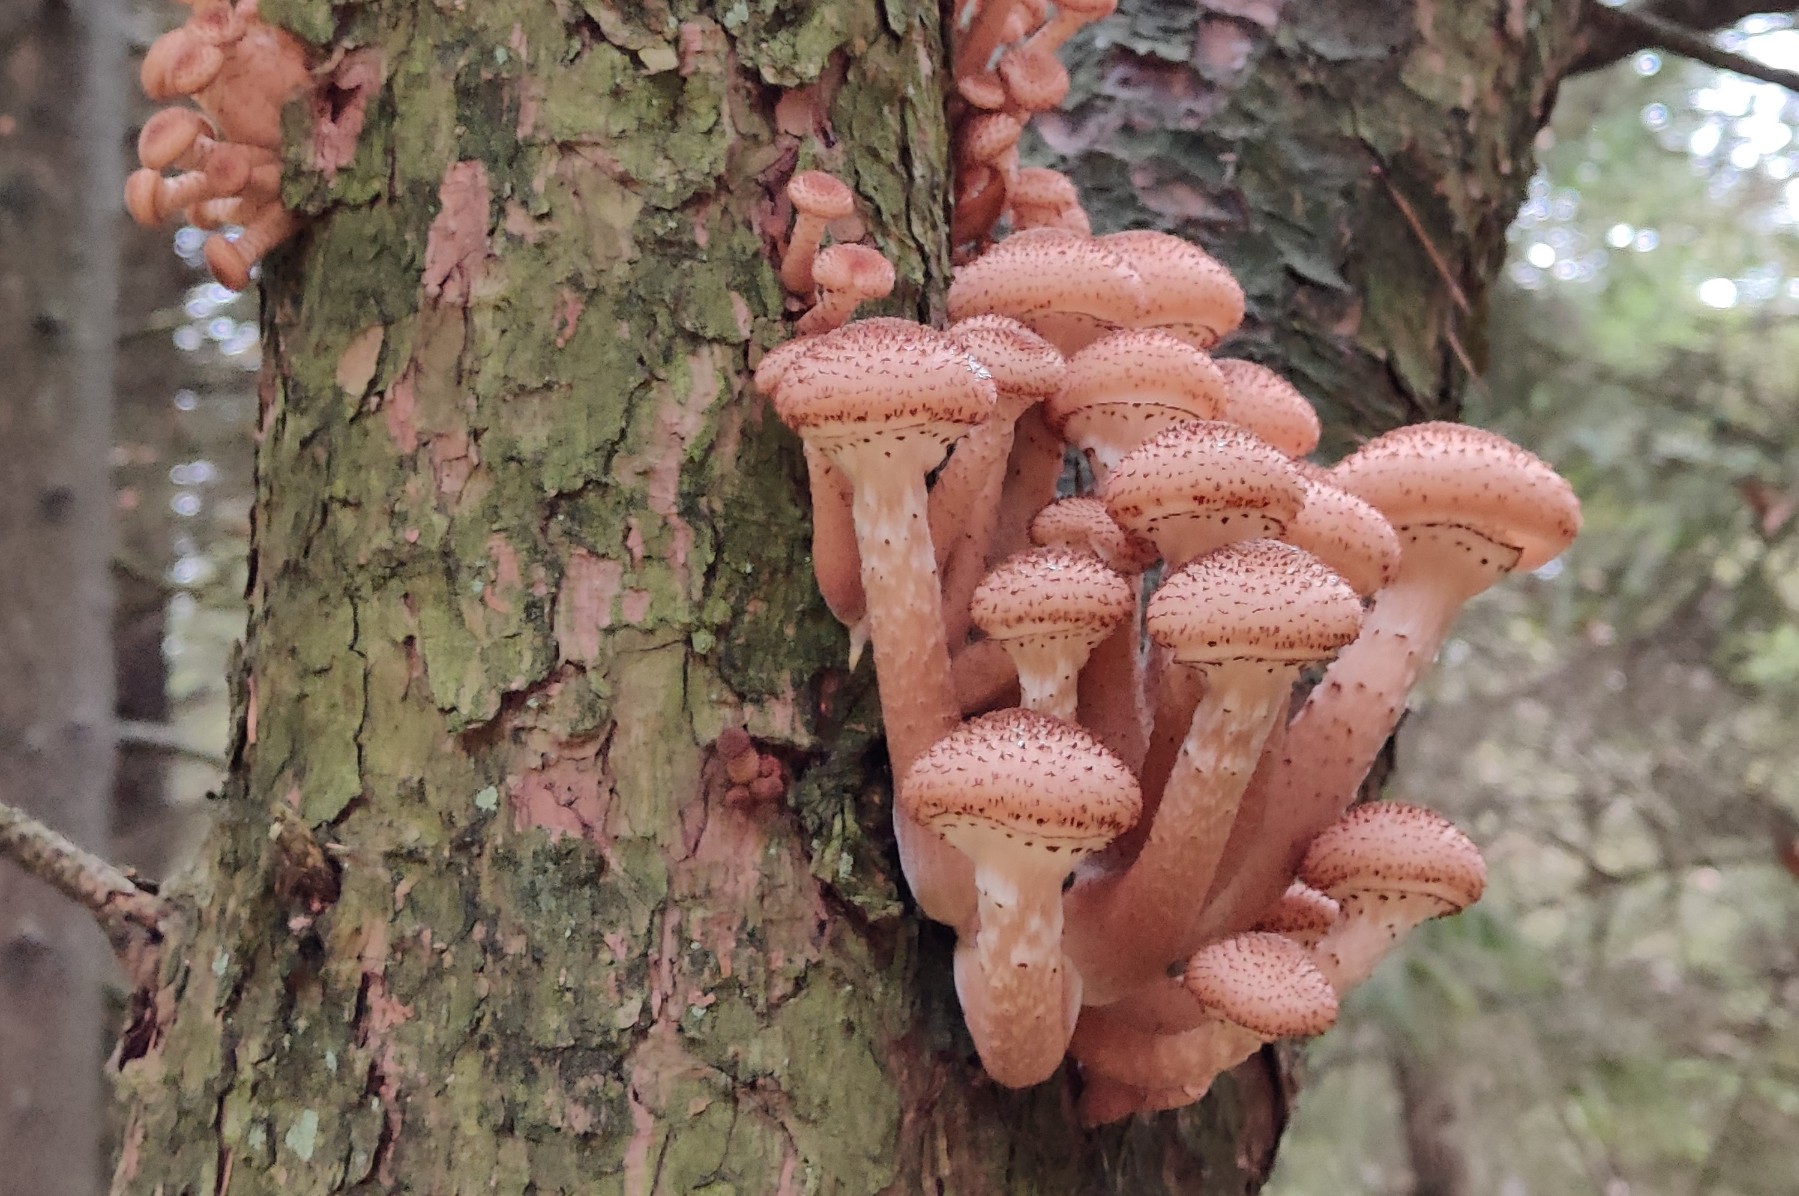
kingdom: Fungi
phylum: Basidiomycota
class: Agaricomycetes
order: Agaricales
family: Physalacriaceae
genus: Armillaria
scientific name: Armillaria ostoyae
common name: mørk honningsvamp
